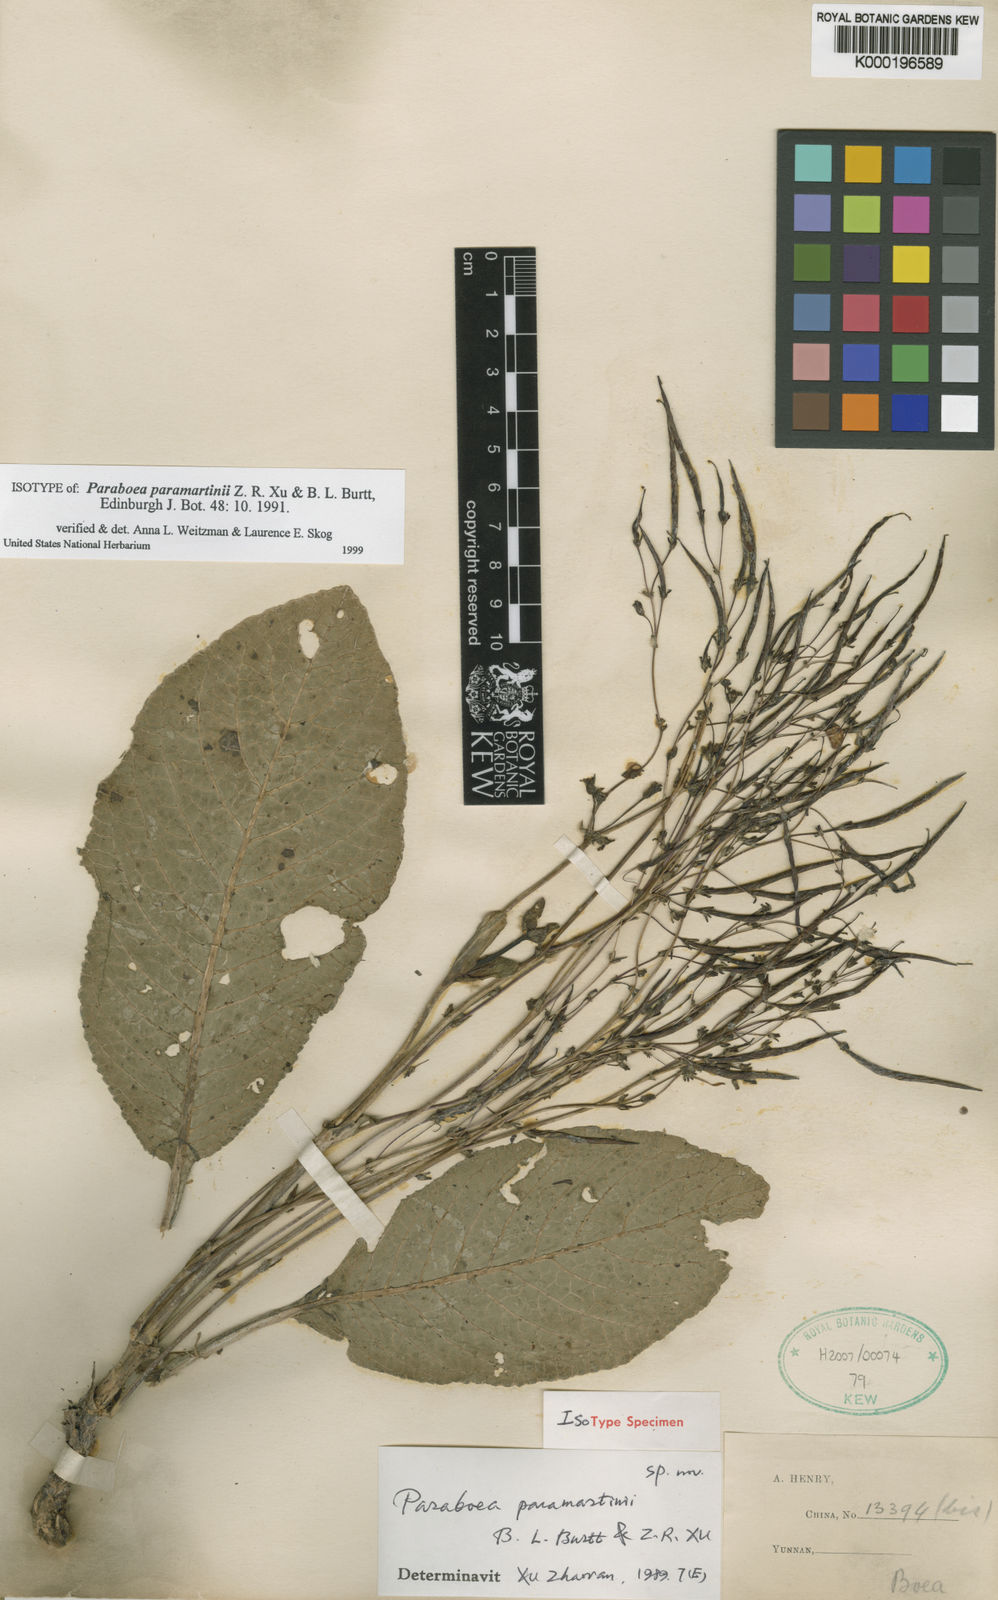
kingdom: Plantae
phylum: Tracheophyta
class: Magnoliopsida
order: Lamiales
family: Gesneriaceae
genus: Paraboea
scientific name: Paraboea paramartinii
